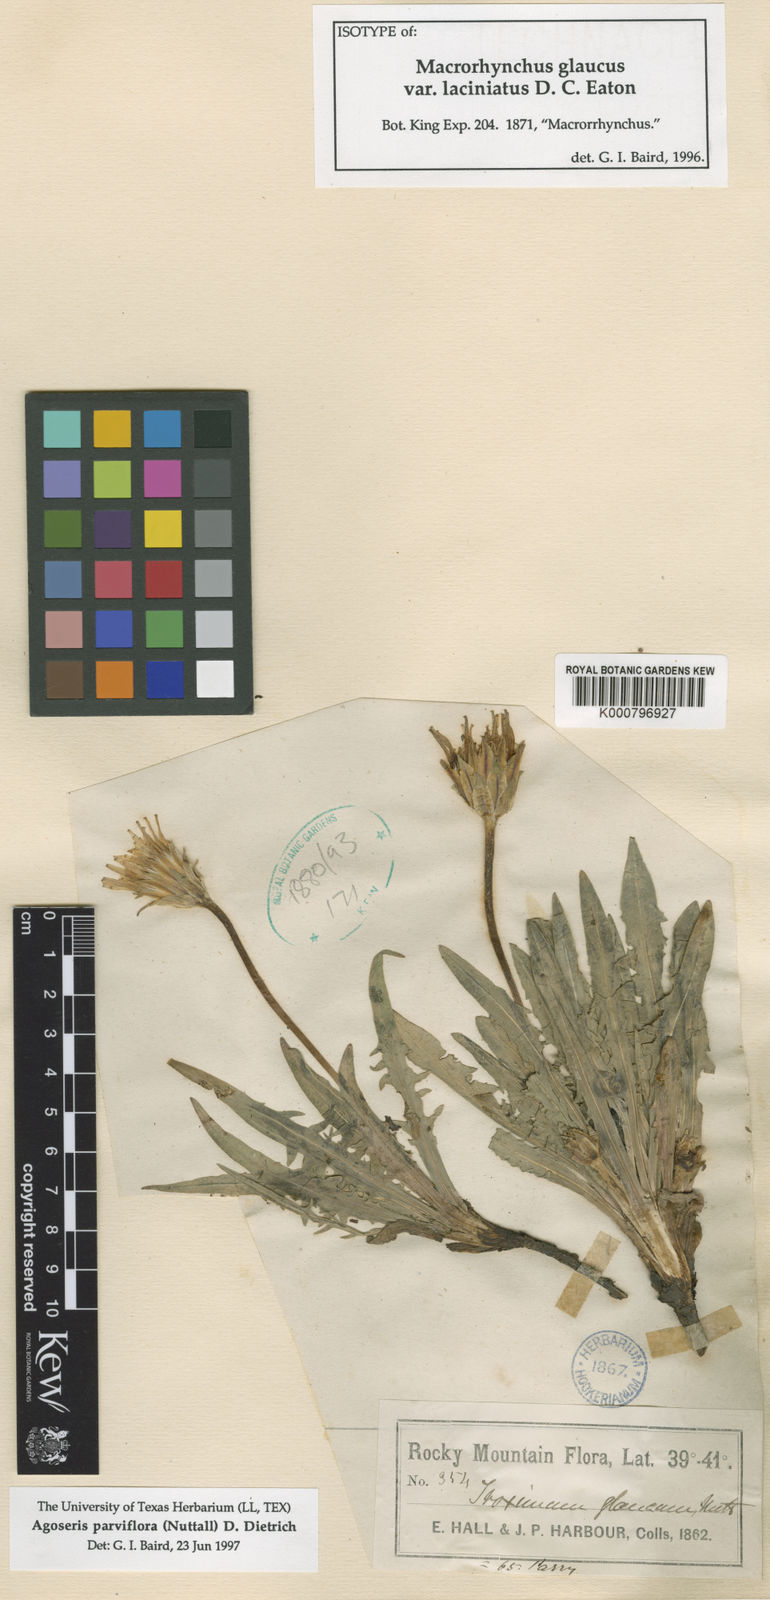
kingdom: Plantae
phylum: Tracheophyta
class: Magnoliopsida
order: Asterales
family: Asteraceae
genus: Agoseris
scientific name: Agoseris parviflora
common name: Steppe agoseris
